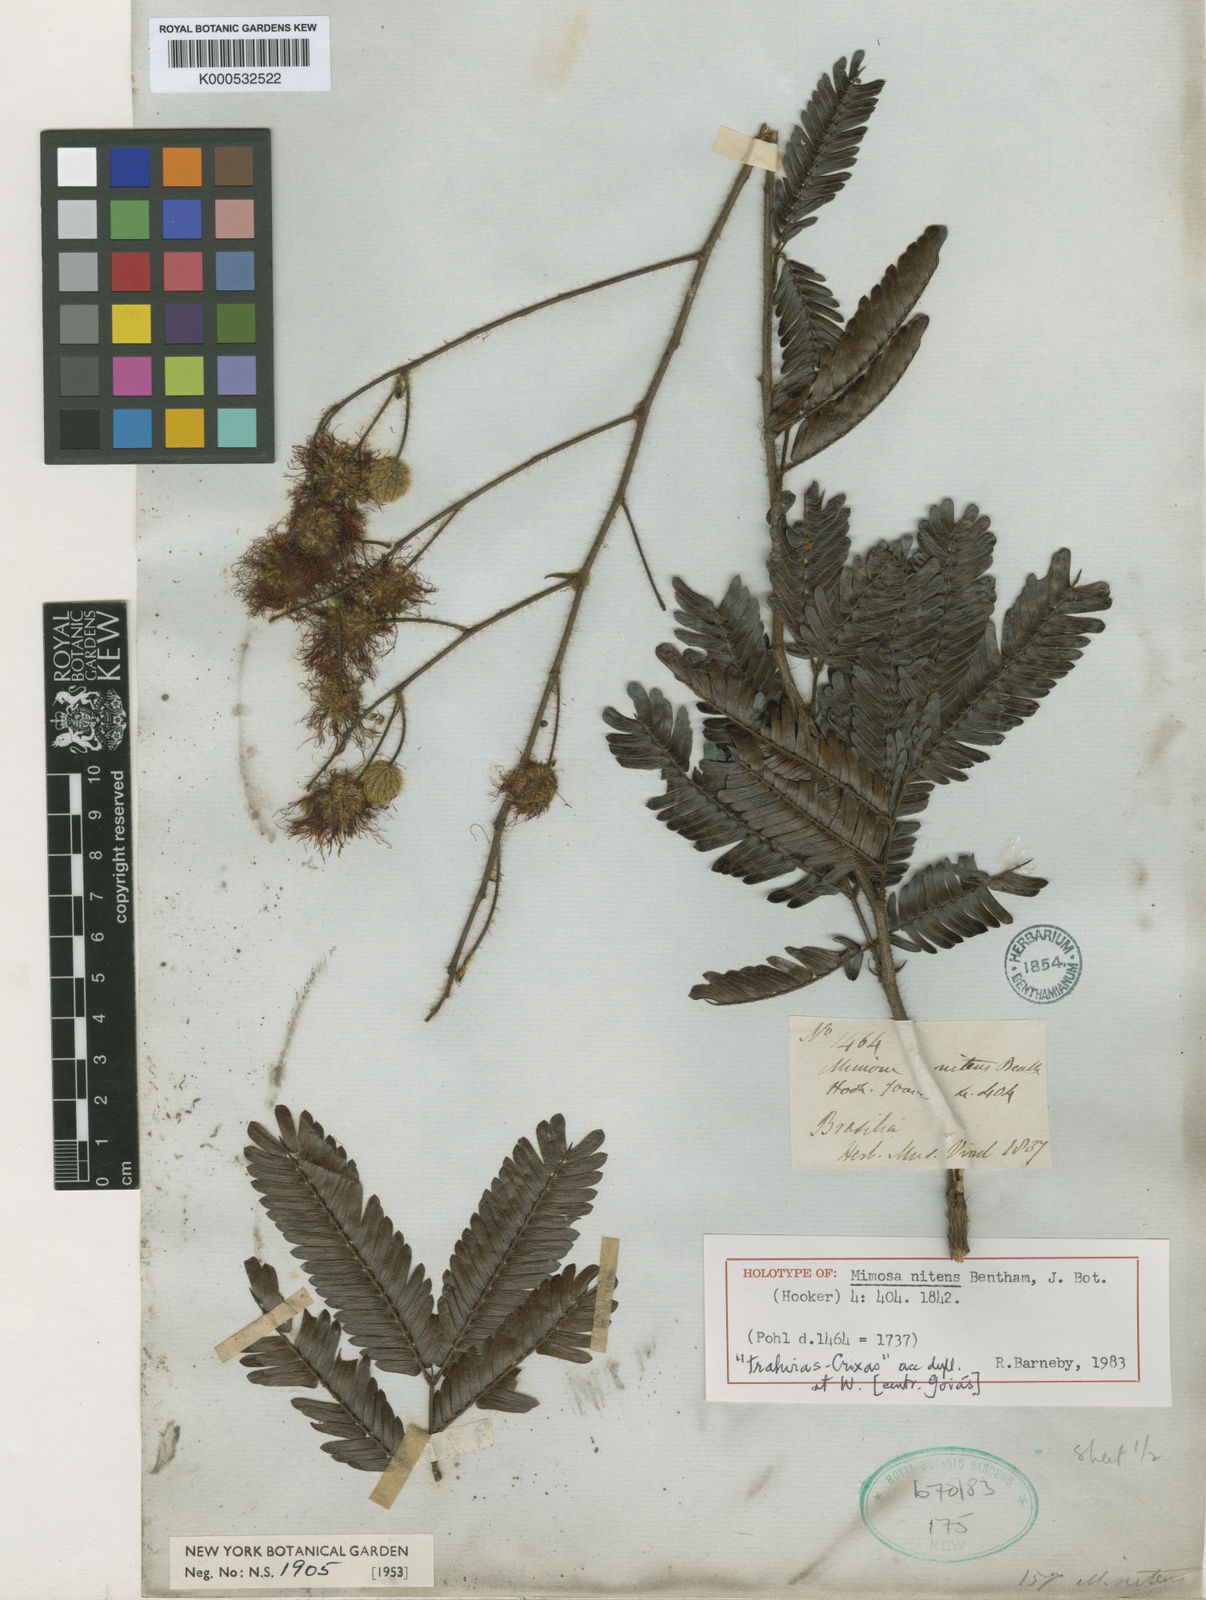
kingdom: Plantae
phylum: Tracheophyta
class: Magnoliopsida
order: Fabales
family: Fabaceae
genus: Mimosa
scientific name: Mimosa nitens
